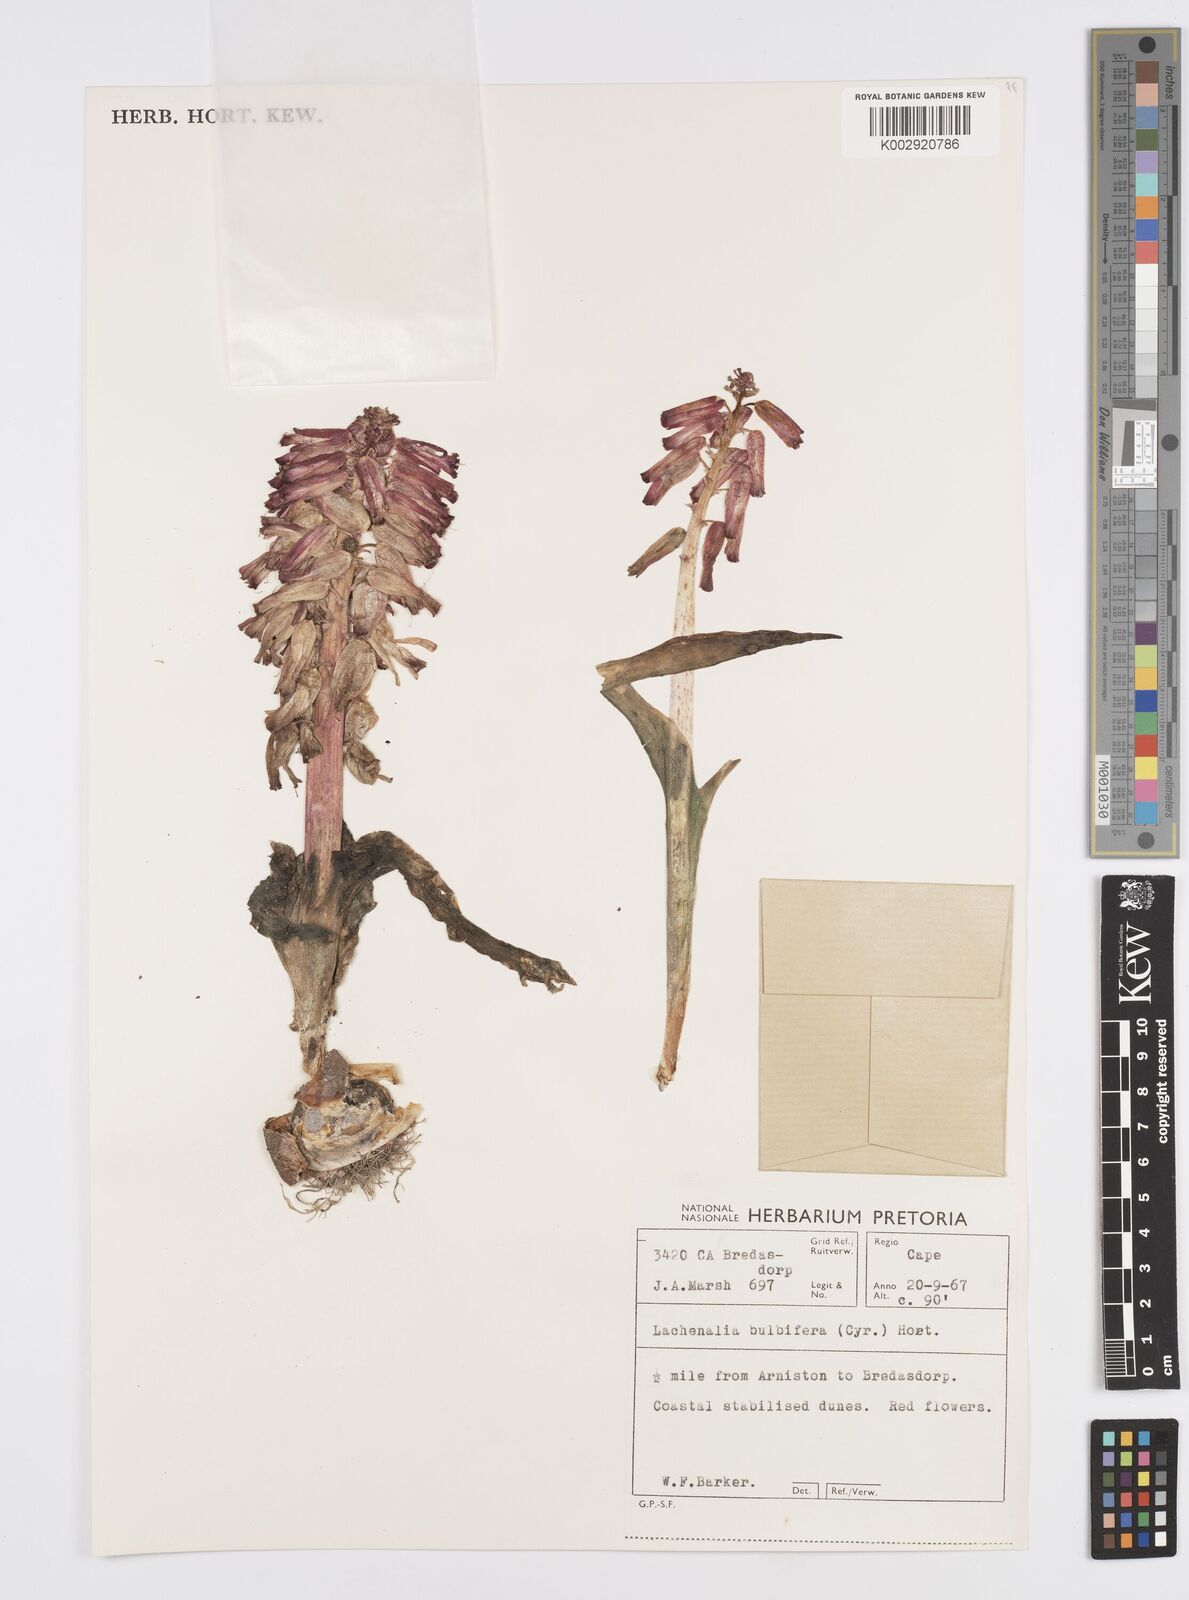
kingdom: Plantae
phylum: Tracheophyta
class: Liliopsida
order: Asparagales
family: Asparagaceae
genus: Lachenalia
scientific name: Lachenalia bulbifera
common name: Red lachenalia
